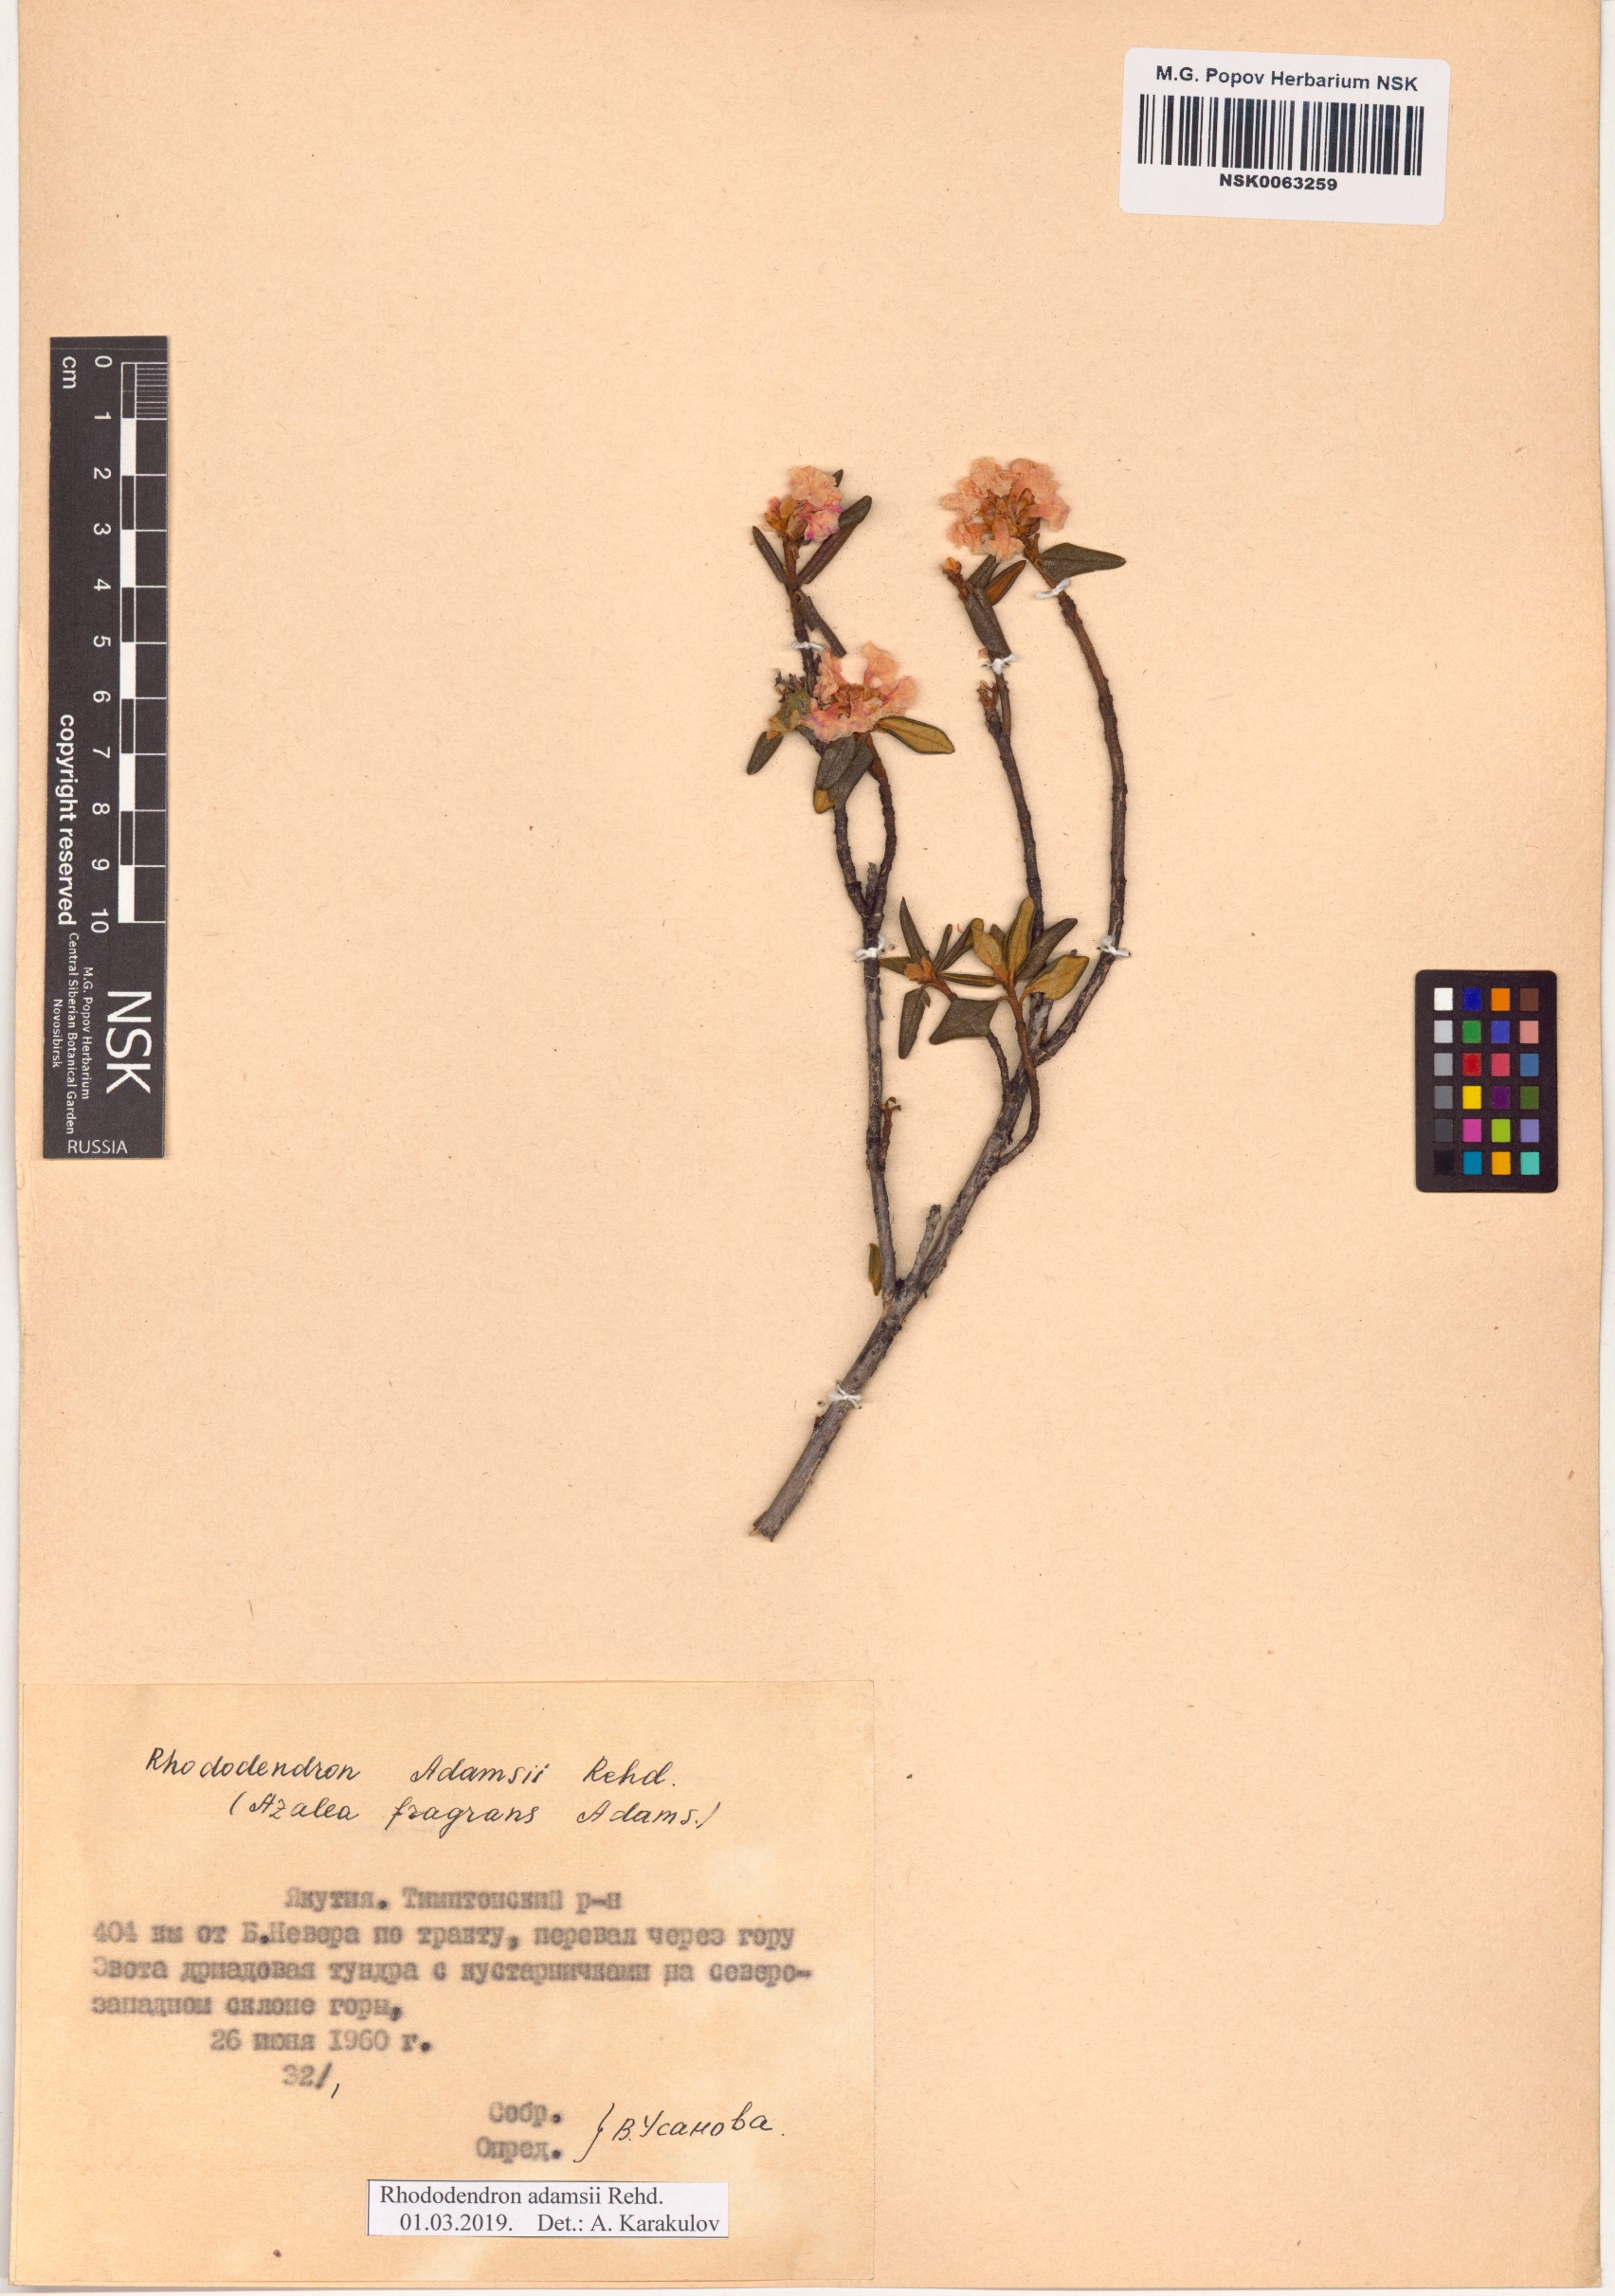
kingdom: Plantae
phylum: Tracheophyta
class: Magnoliopsida
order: Ericales
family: Ericaceae
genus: Rhododendron
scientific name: Rhododendron adamsii
